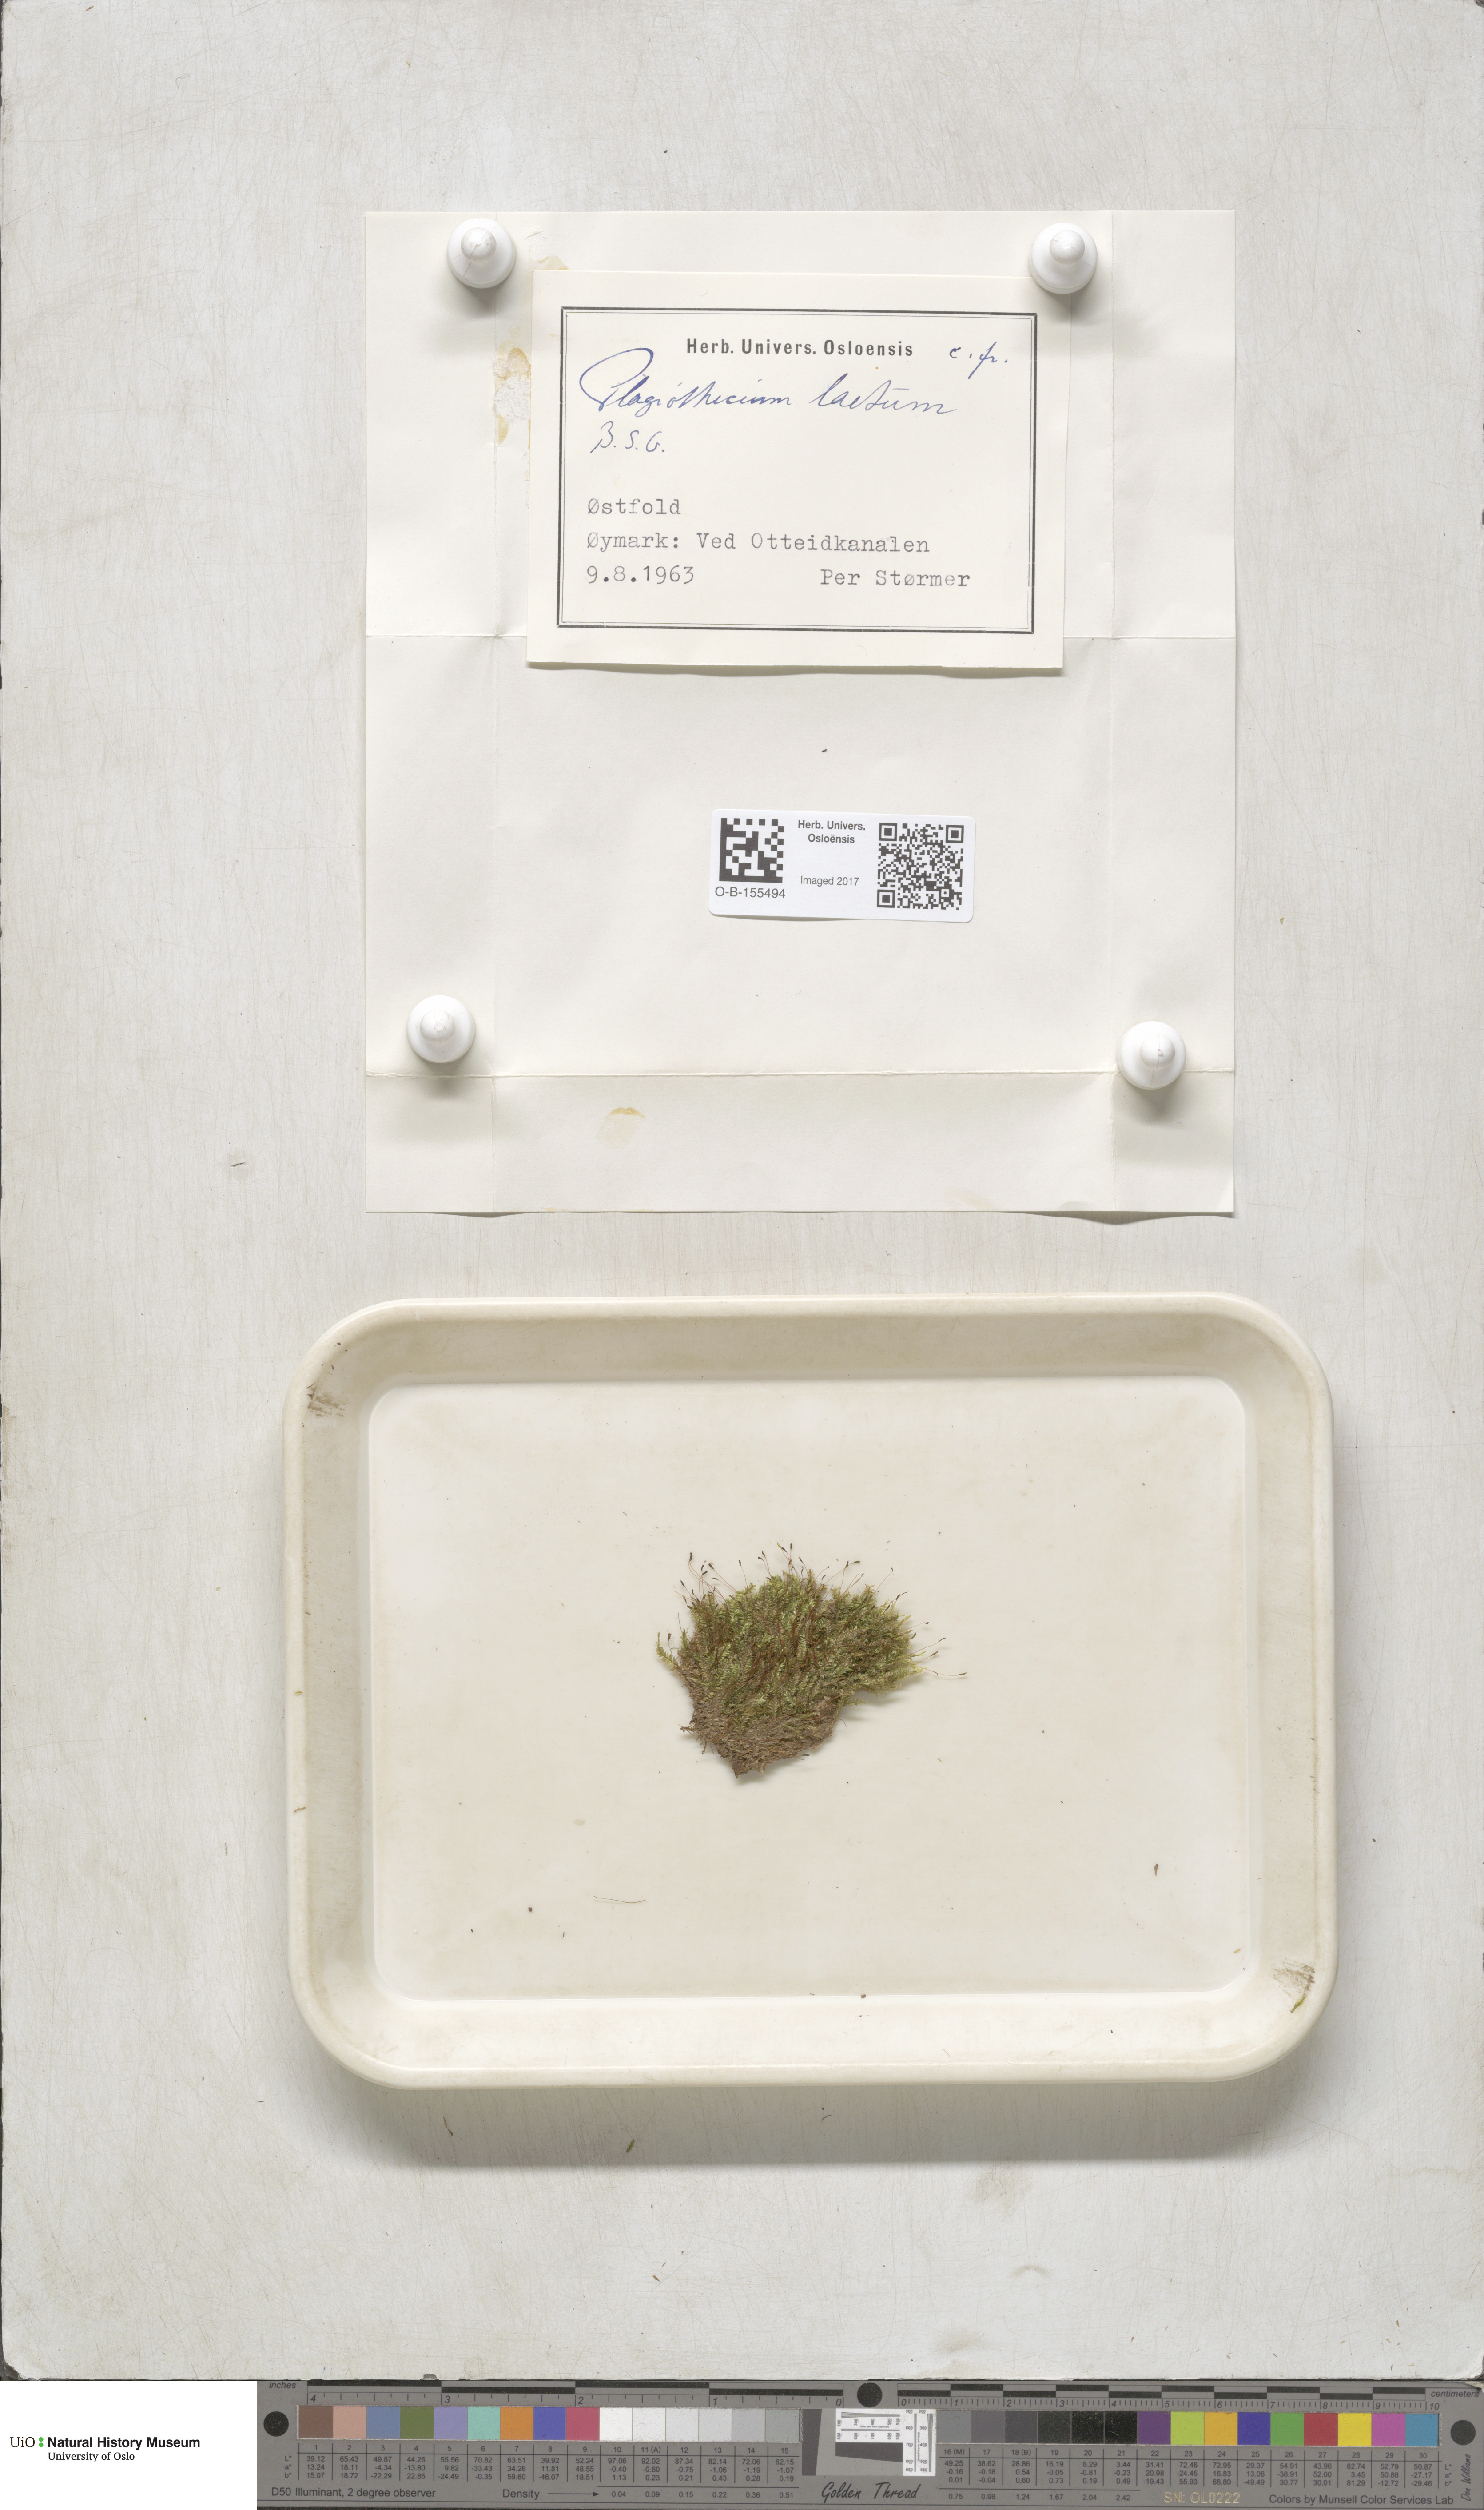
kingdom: Plantae
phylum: Bryophyta
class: Bryopsida
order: Hypnales
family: Plagiotheciaceae
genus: Plagiothecium
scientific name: Plagiothecium laetum
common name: Bright silk moss
